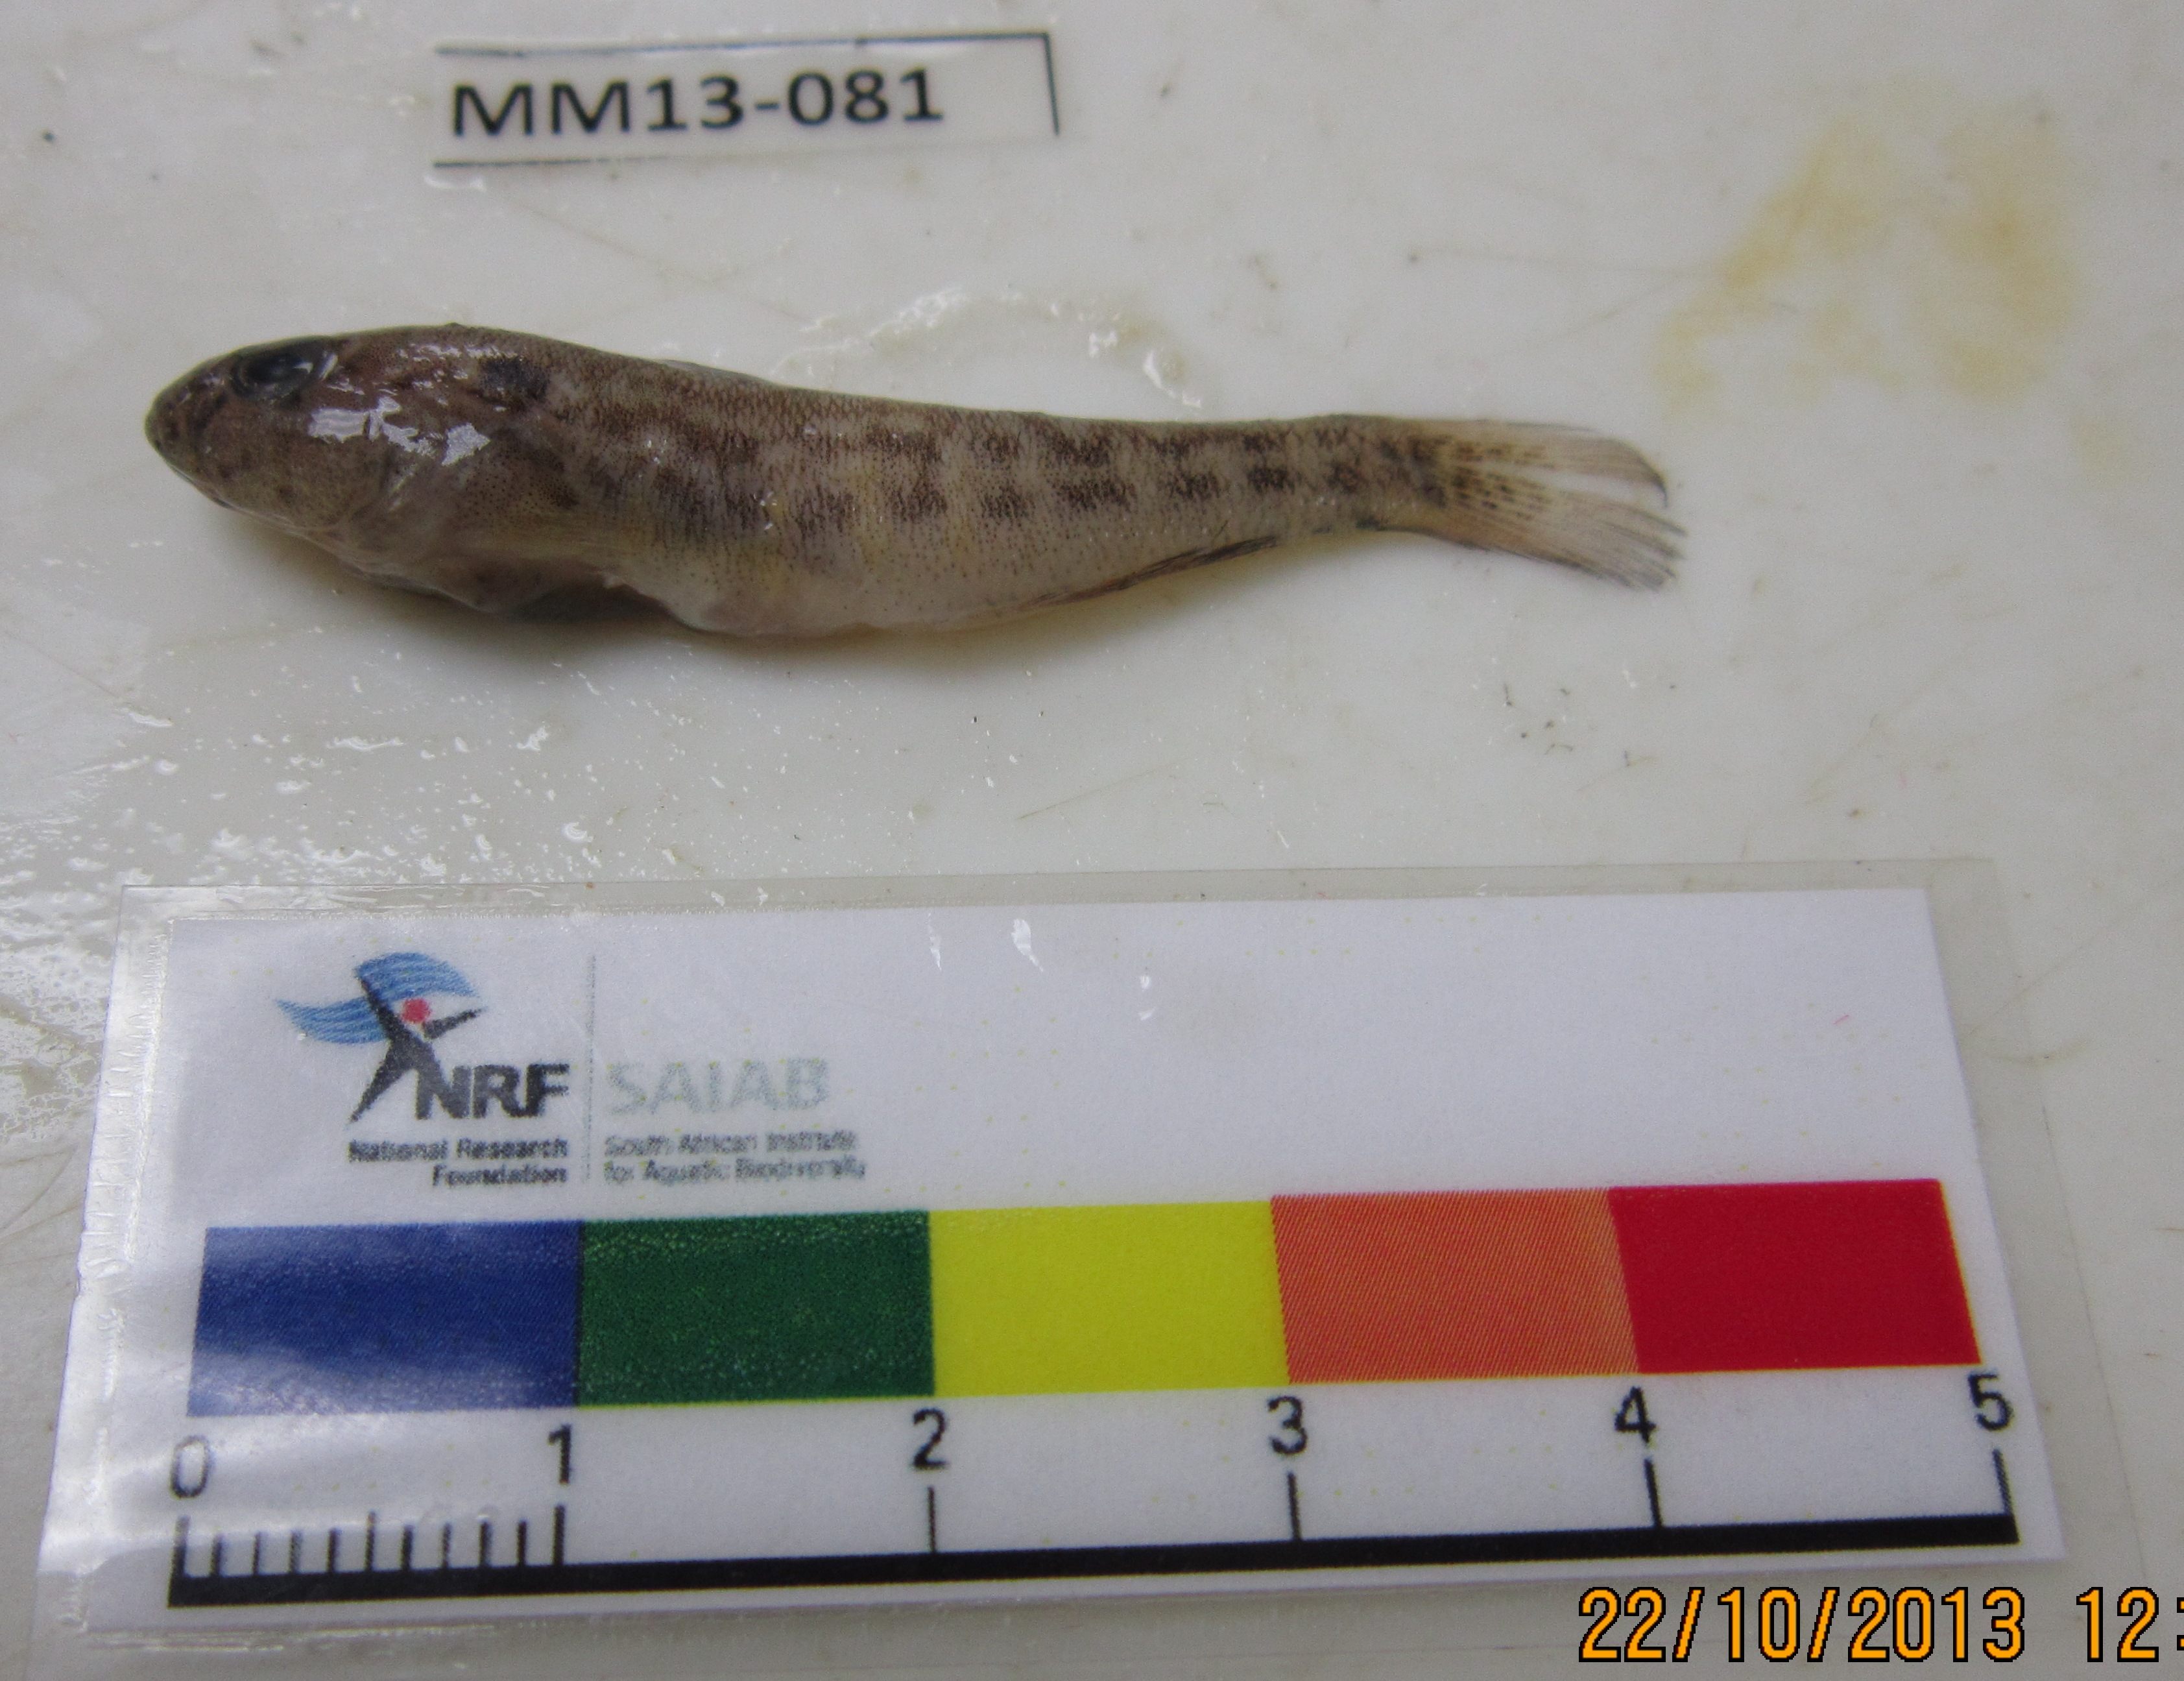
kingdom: Animalia
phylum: Chordata
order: Perciformes
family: Gobiidae
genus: Caffrogobius
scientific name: Caffrogobius caffer
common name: Banded goby
